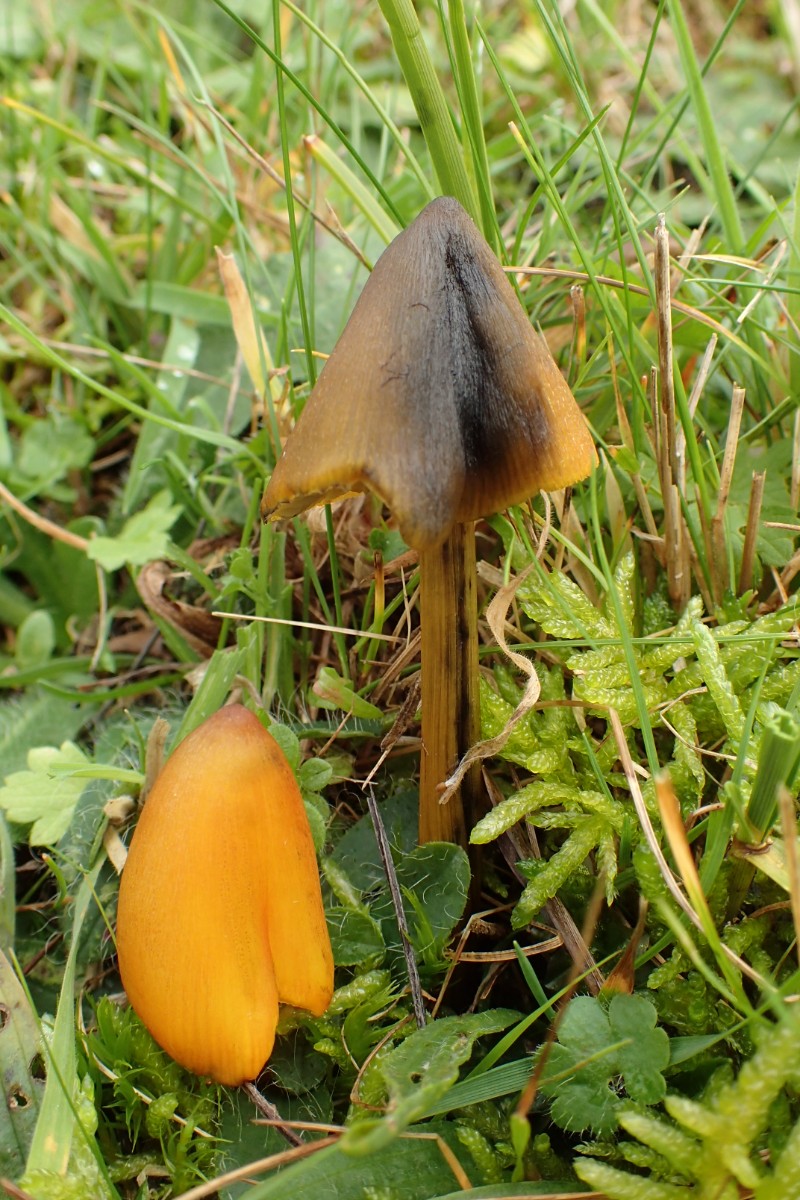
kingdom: Fungi
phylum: Basidiomycota
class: Agaricomycetes
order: Agaricales
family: Hygrophoraceae
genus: Hygrocybe
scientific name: Hygrocybe conica
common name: kegle-vokshat
